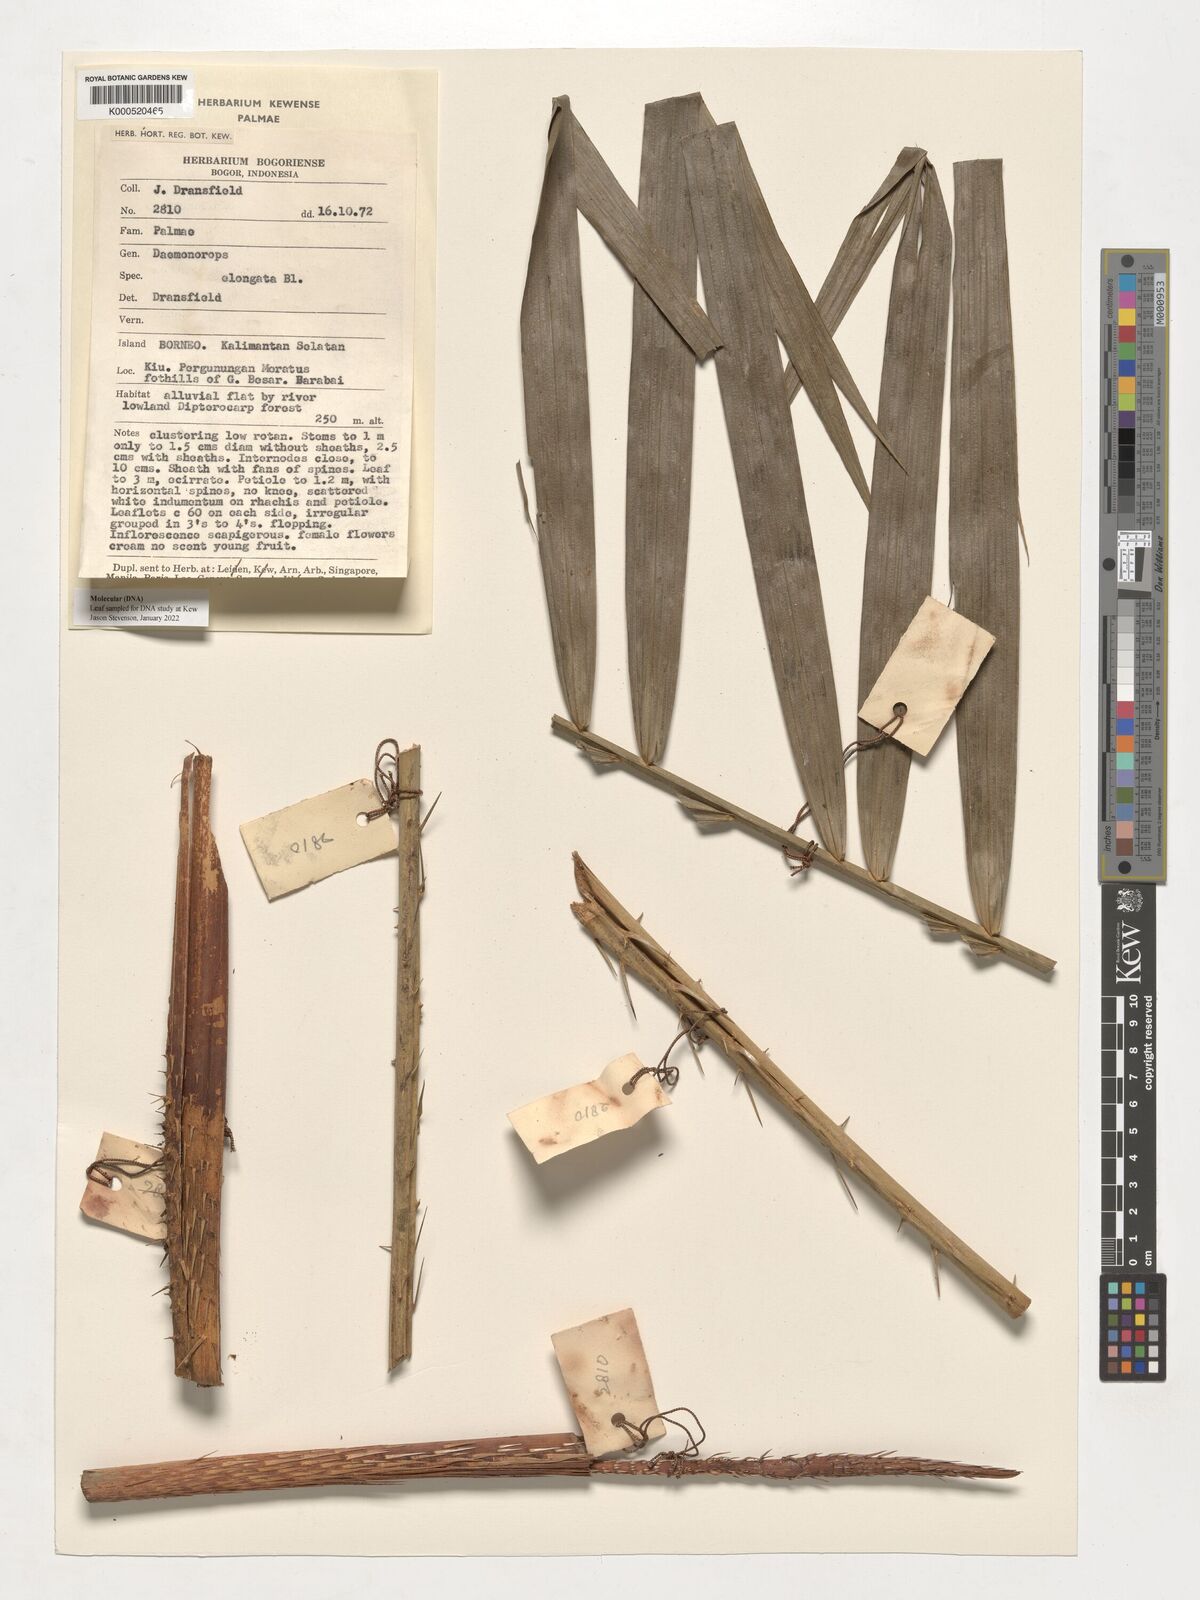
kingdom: Plantae
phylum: Tracheophyta
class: Liliopsida
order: Arecales
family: Arecaceae
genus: Calamus
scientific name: Calamus oblongus
